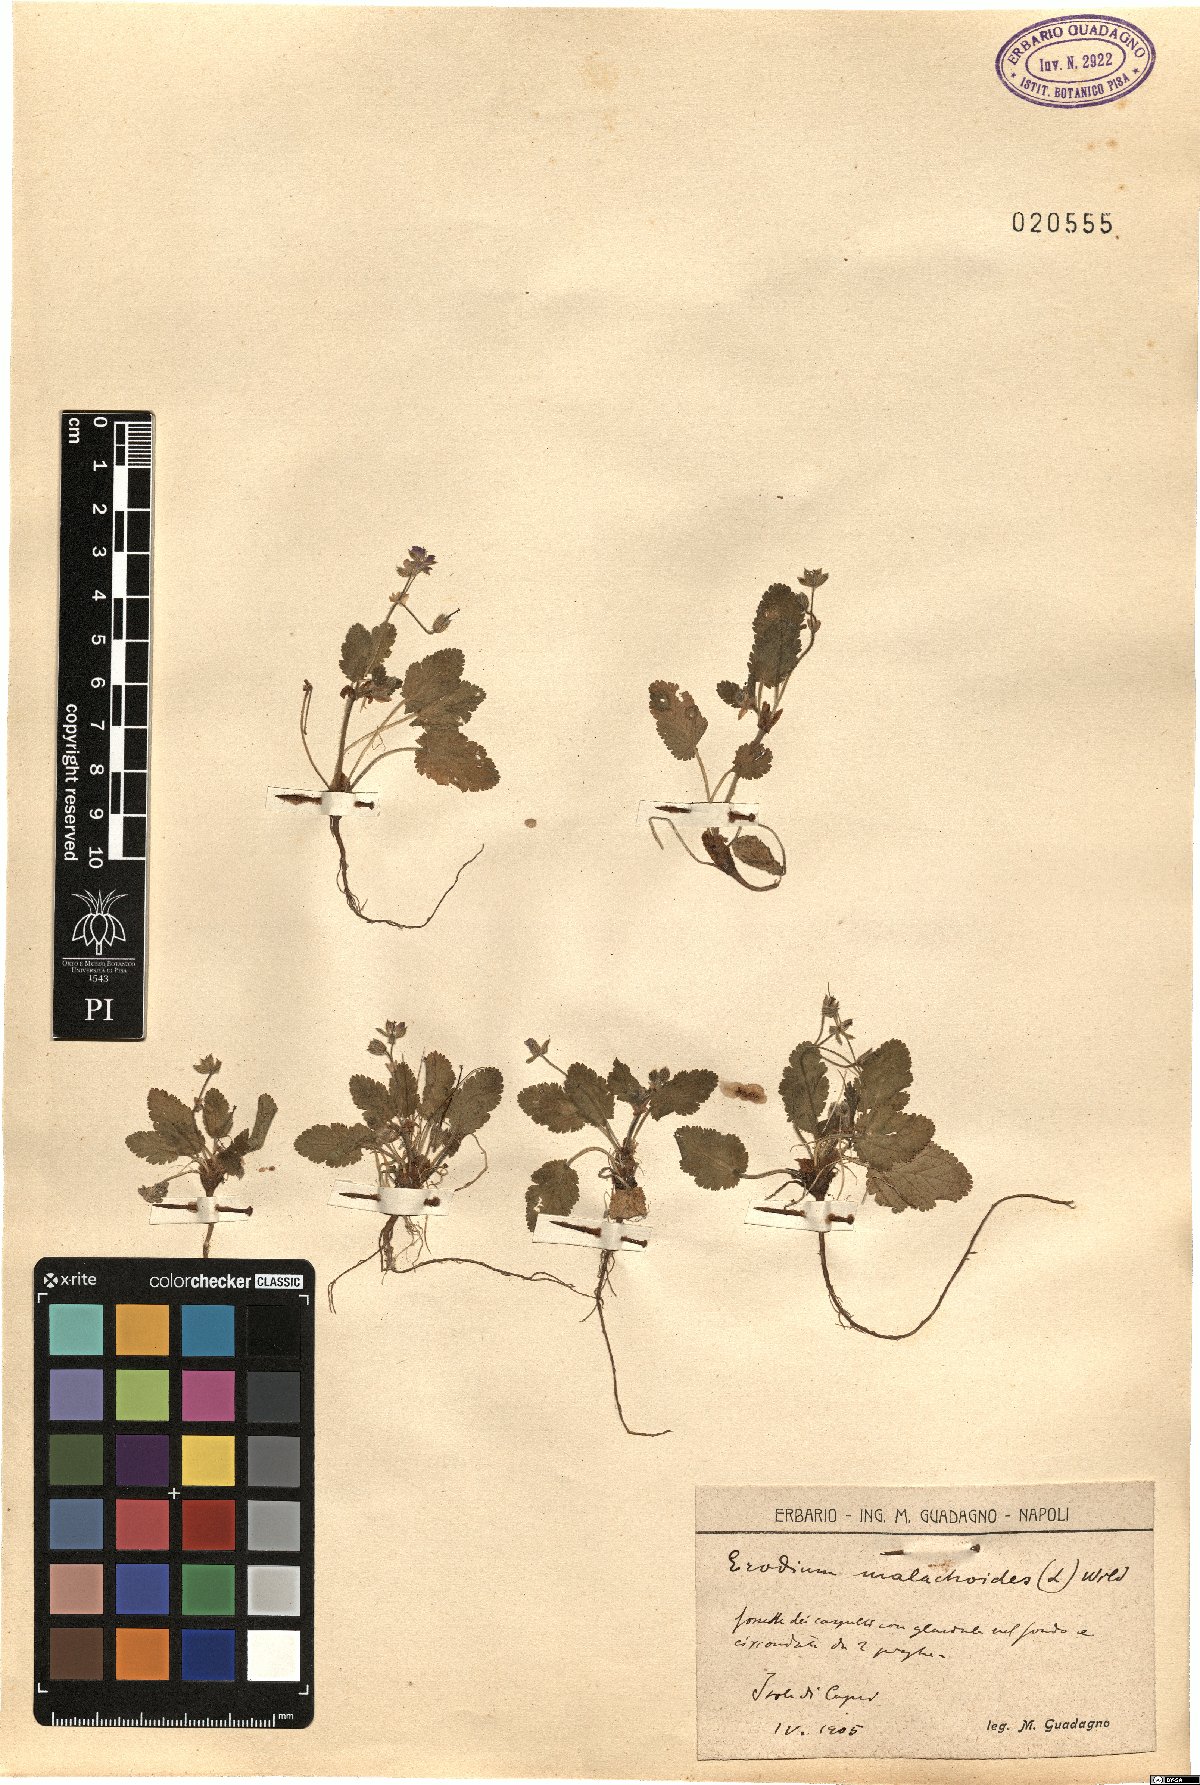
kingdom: Plantae
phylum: Tracheophyta
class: Magnoliopsida
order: Geraniales
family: Geraniaceae
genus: Erodium
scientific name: Erodium malacoides
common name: Soft stork's-bill
